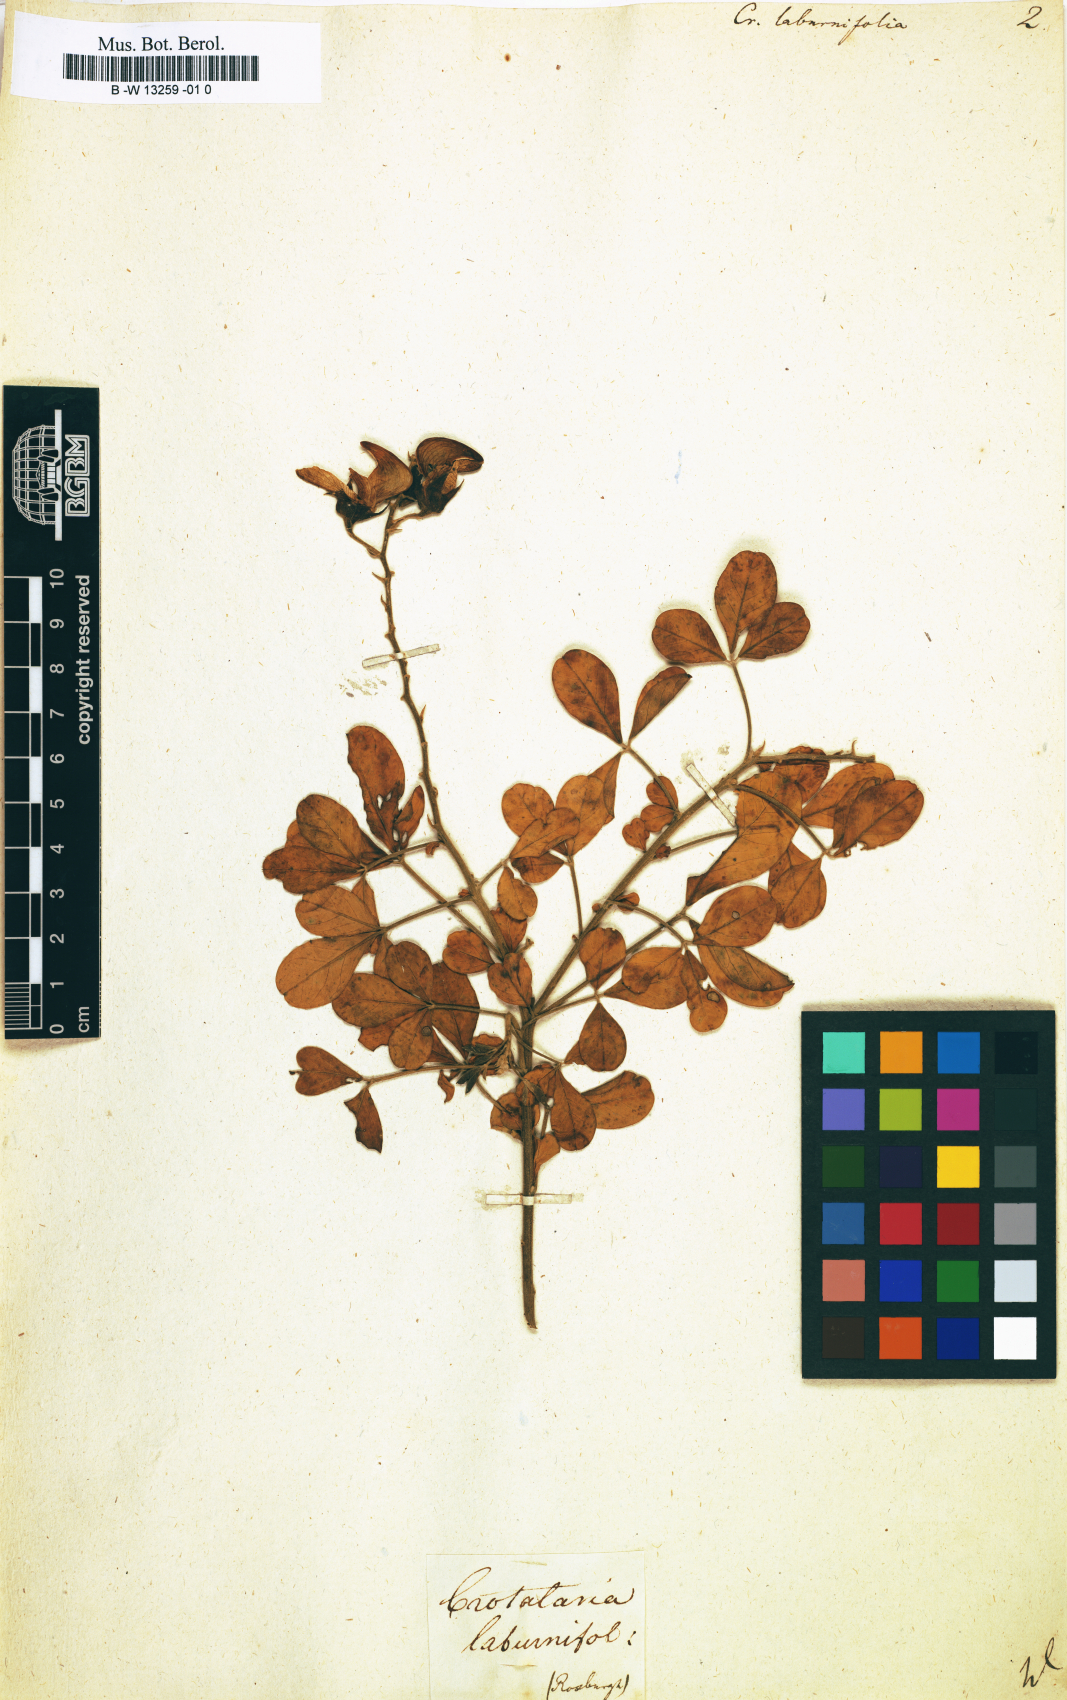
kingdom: Plantae
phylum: Tracheophyta
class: Magnoliopsida
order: Fabales
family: Fabaceae
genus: Crotalaria
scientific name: Crotalaria laburnifolia
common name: Birdflower
